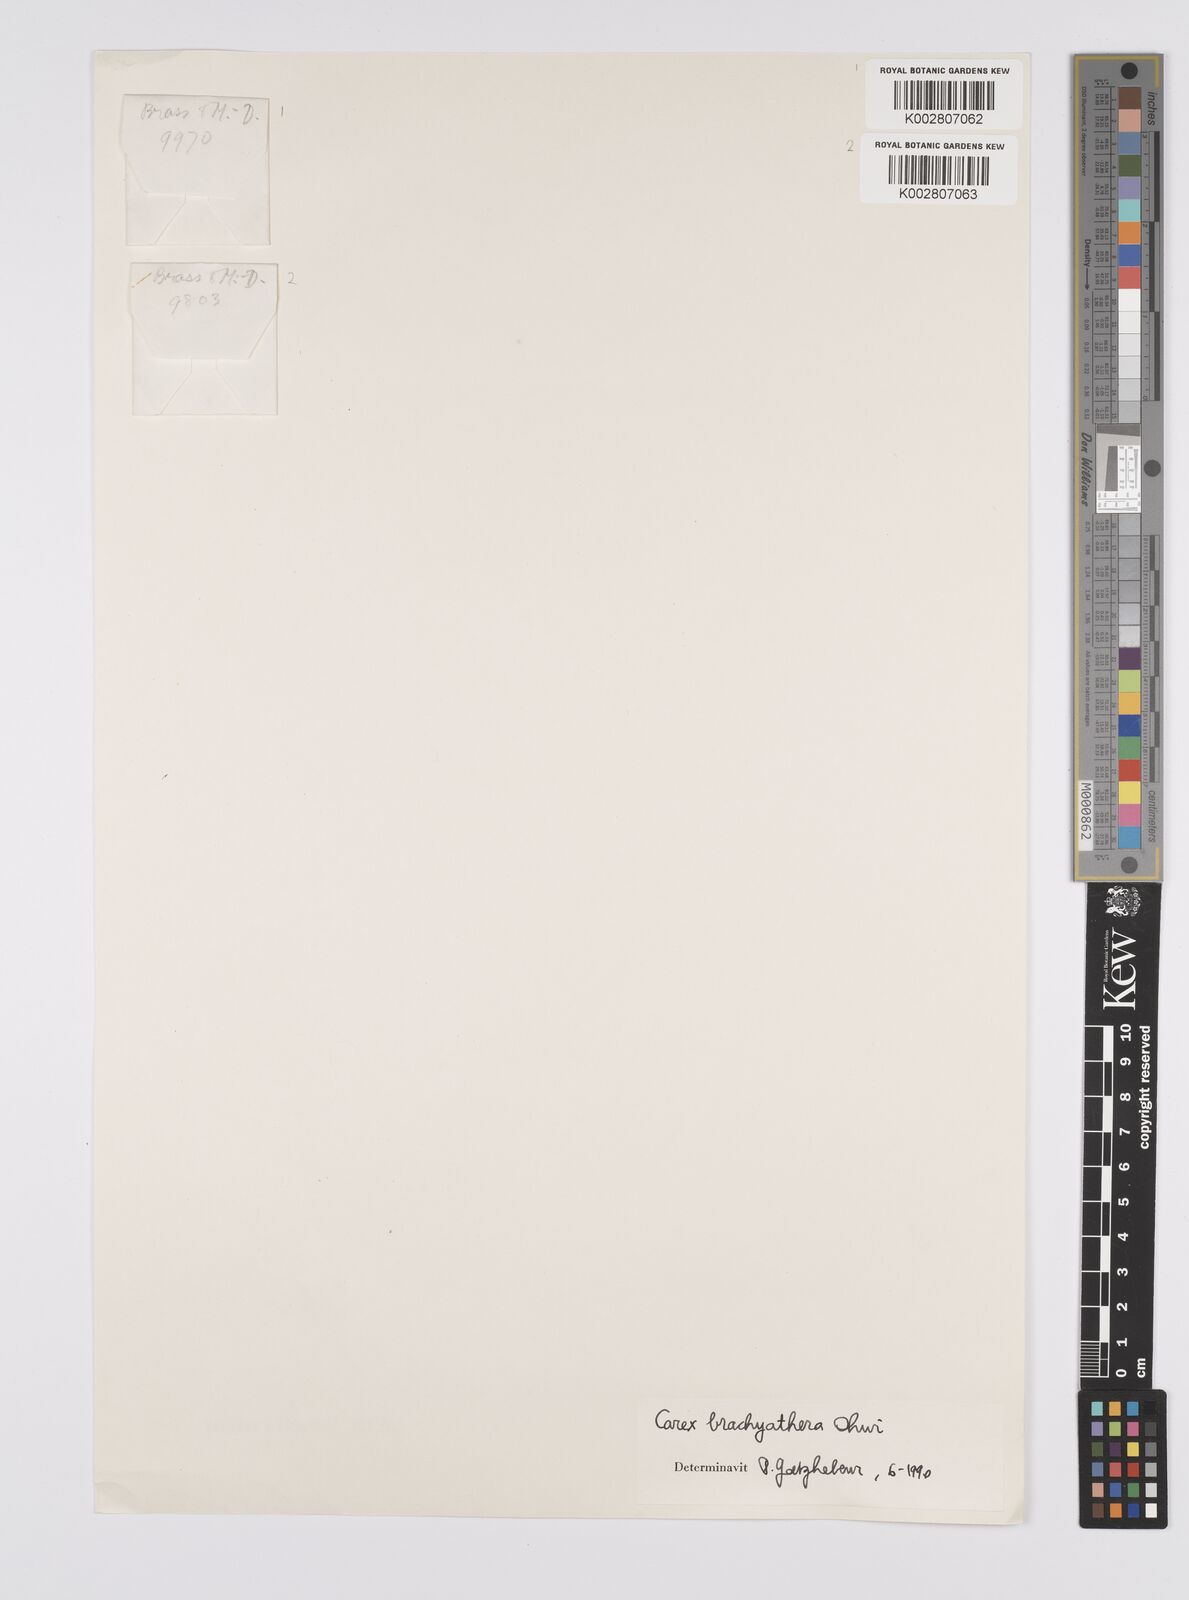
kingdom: Plantae
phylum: Tracheophyta
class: Liliopsida
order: Poales
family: Cyperaceae
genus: Carex
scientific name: Carex brachyanthera
